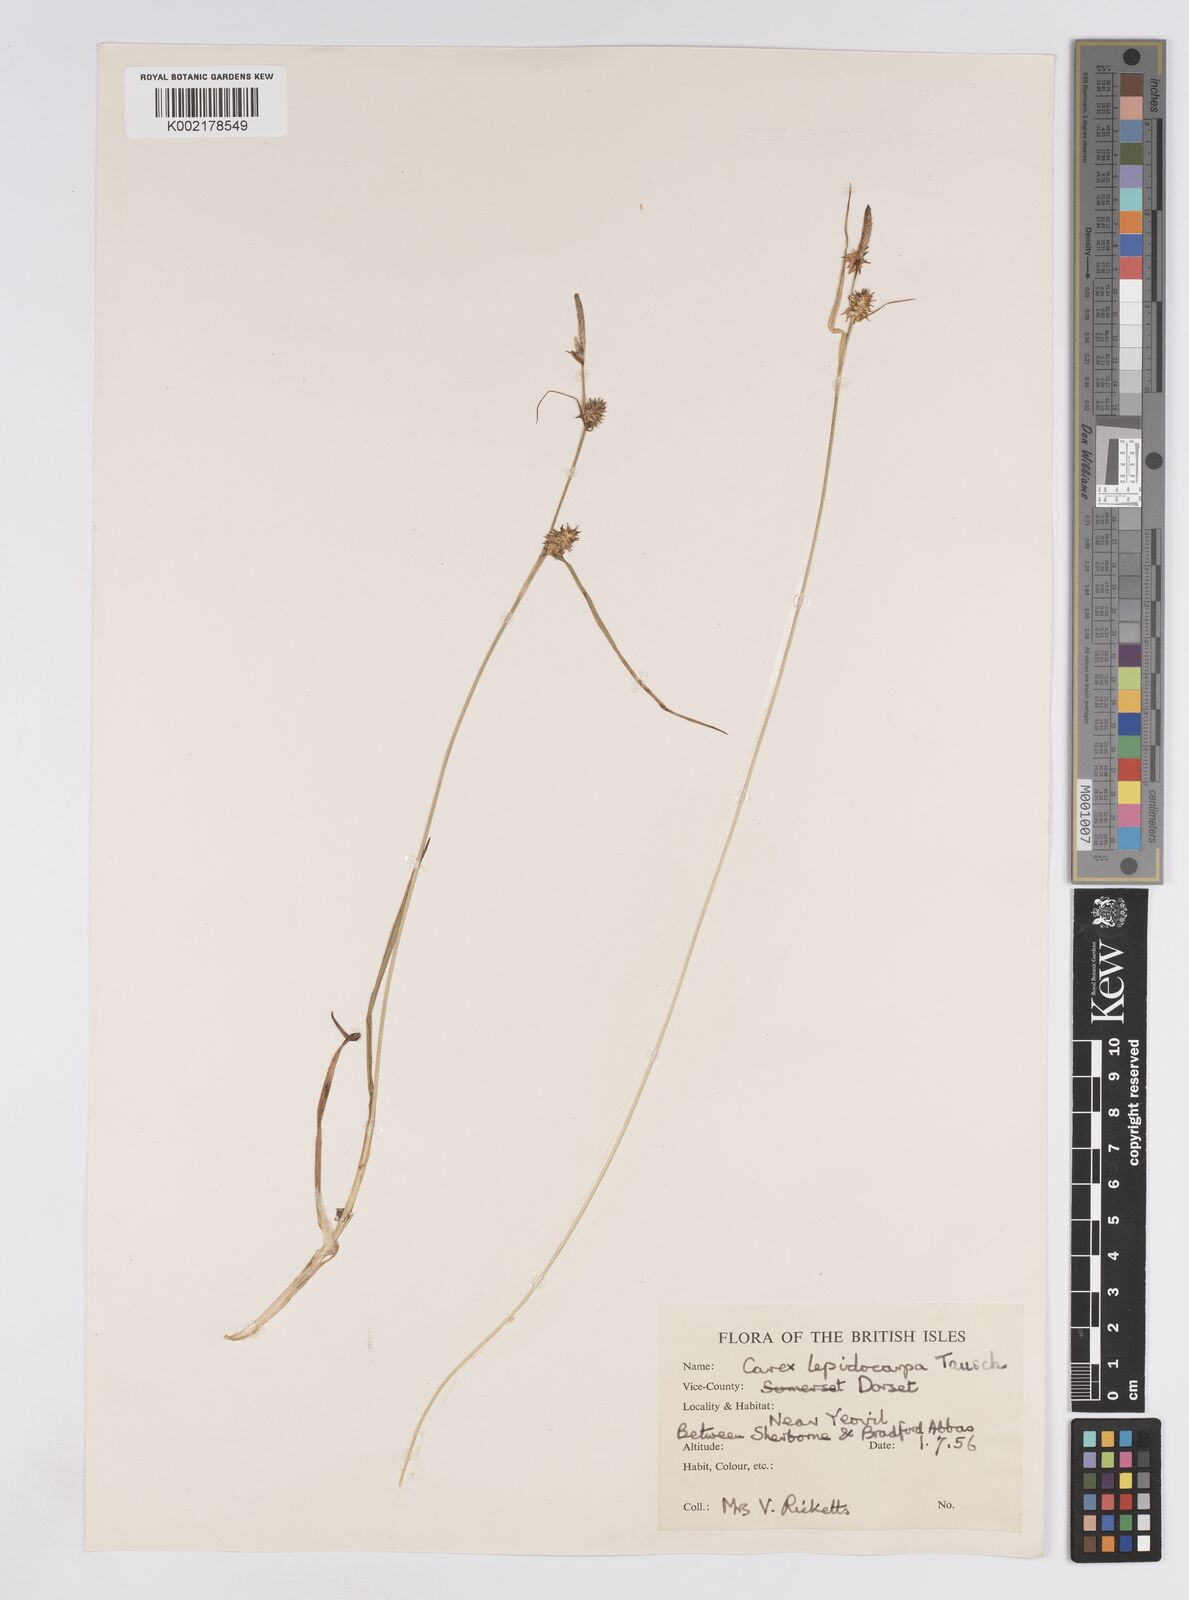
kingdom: Plantae
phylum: Tracheophyta
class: Liliopsida
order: Poales
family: Cyperaceae
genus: Carex
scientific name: Carex lepidocarpa
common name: Long-stalked yellow-sedge
